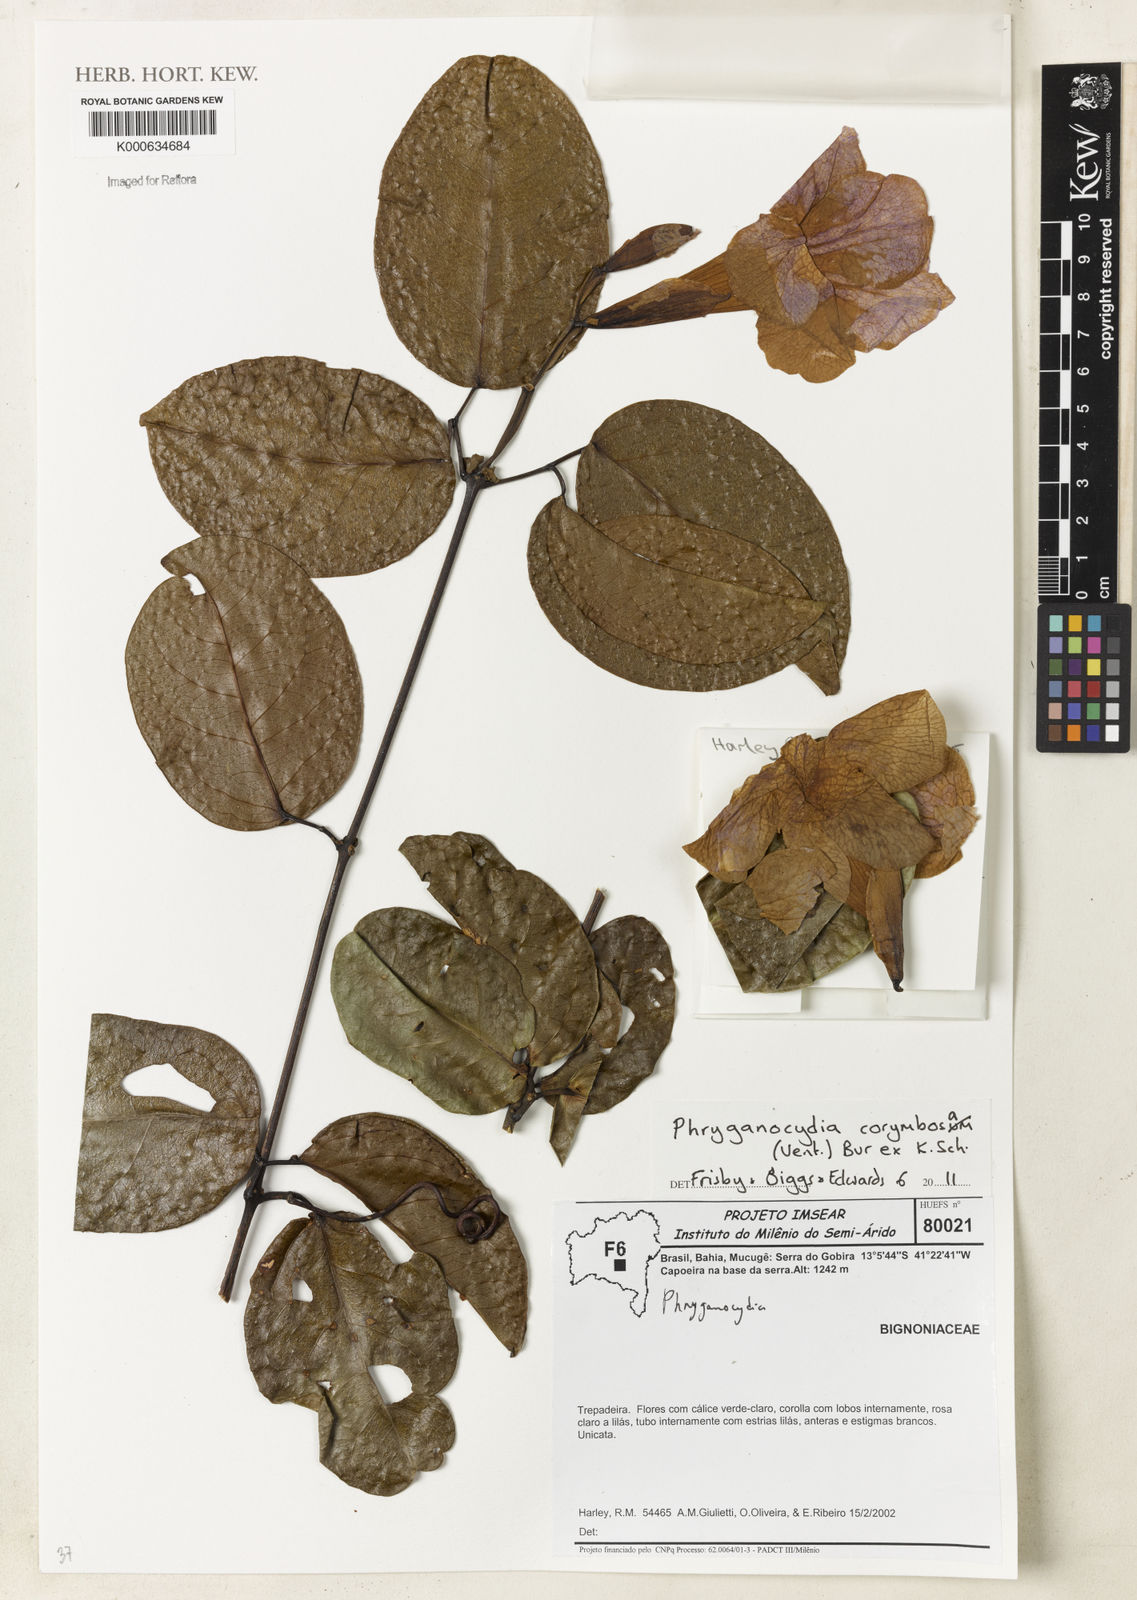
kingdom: Plantae
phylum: Tracheophyta
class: Magnoliopsida
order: Lamiales
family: Bignoniaceae
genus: Bignonia
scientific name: Bignonia corymbosa
